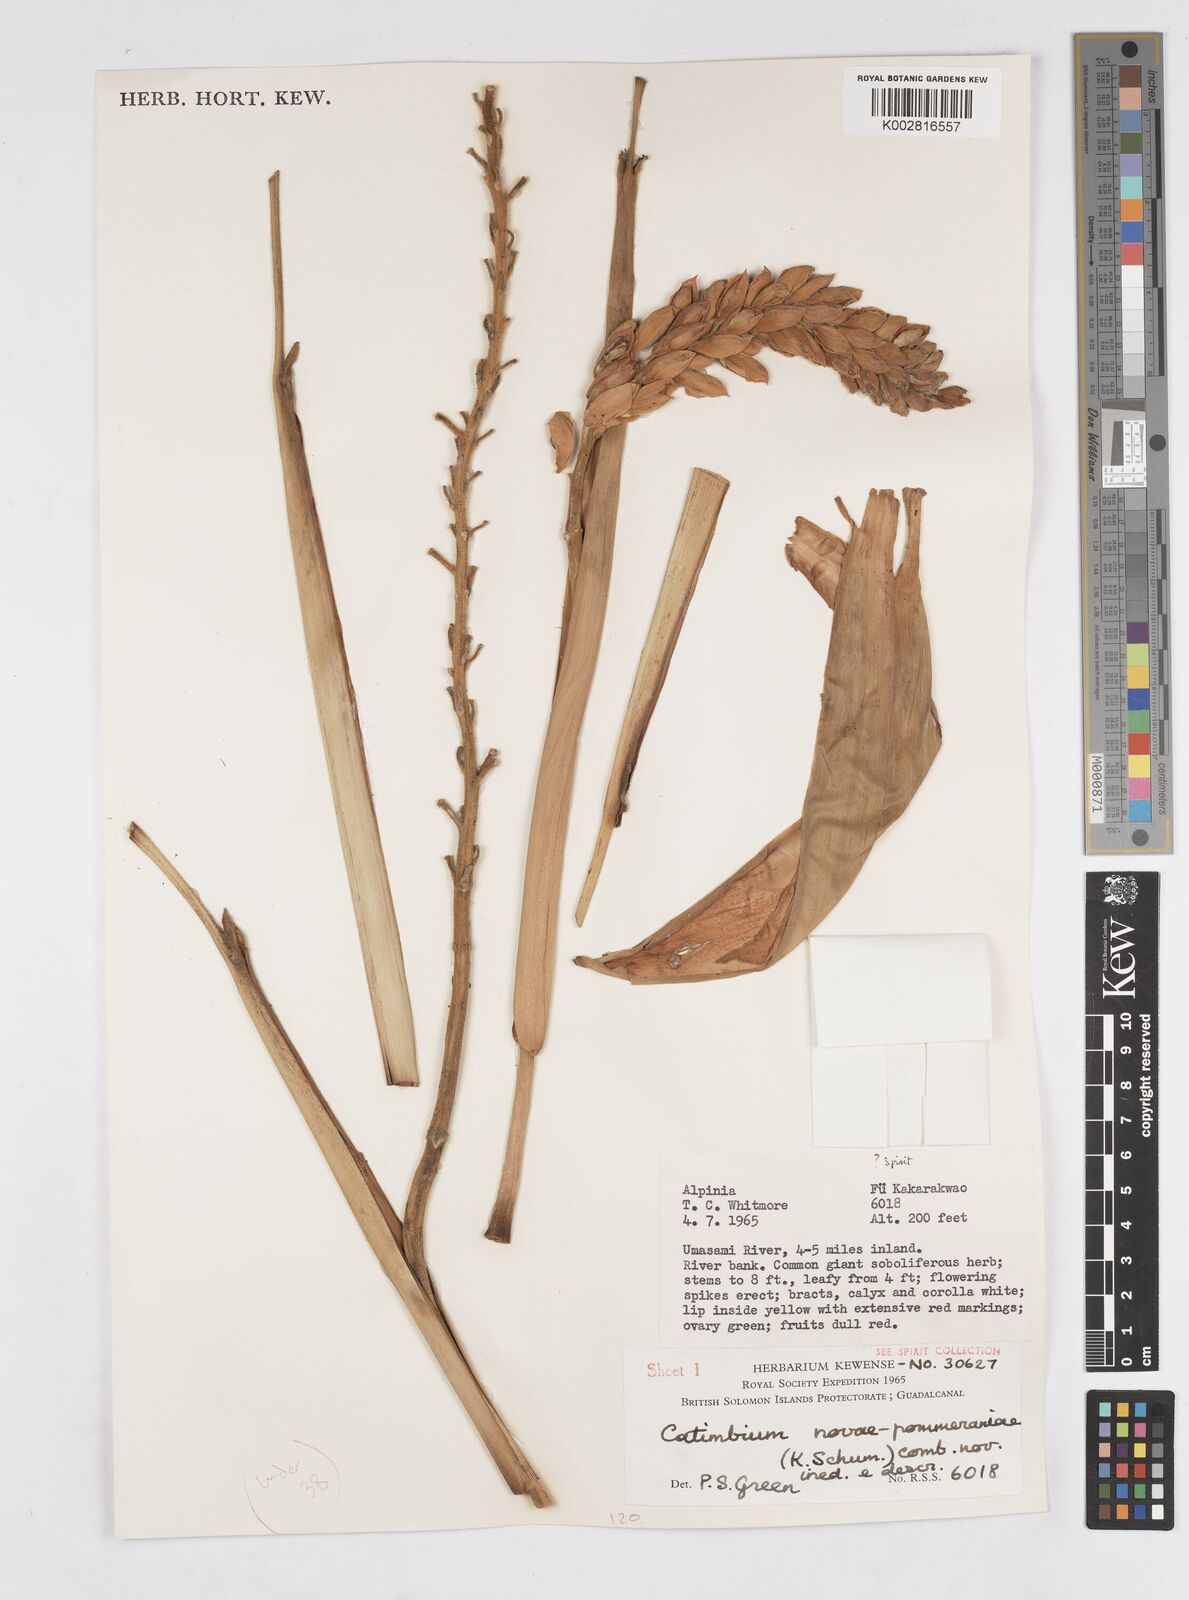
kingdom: Plantae
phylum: Tracheophyta
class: Liliopsida
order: Zingiberales
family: Zingiberaceae
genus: Alpinia
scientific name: Alpinia novae-pommeraniae
